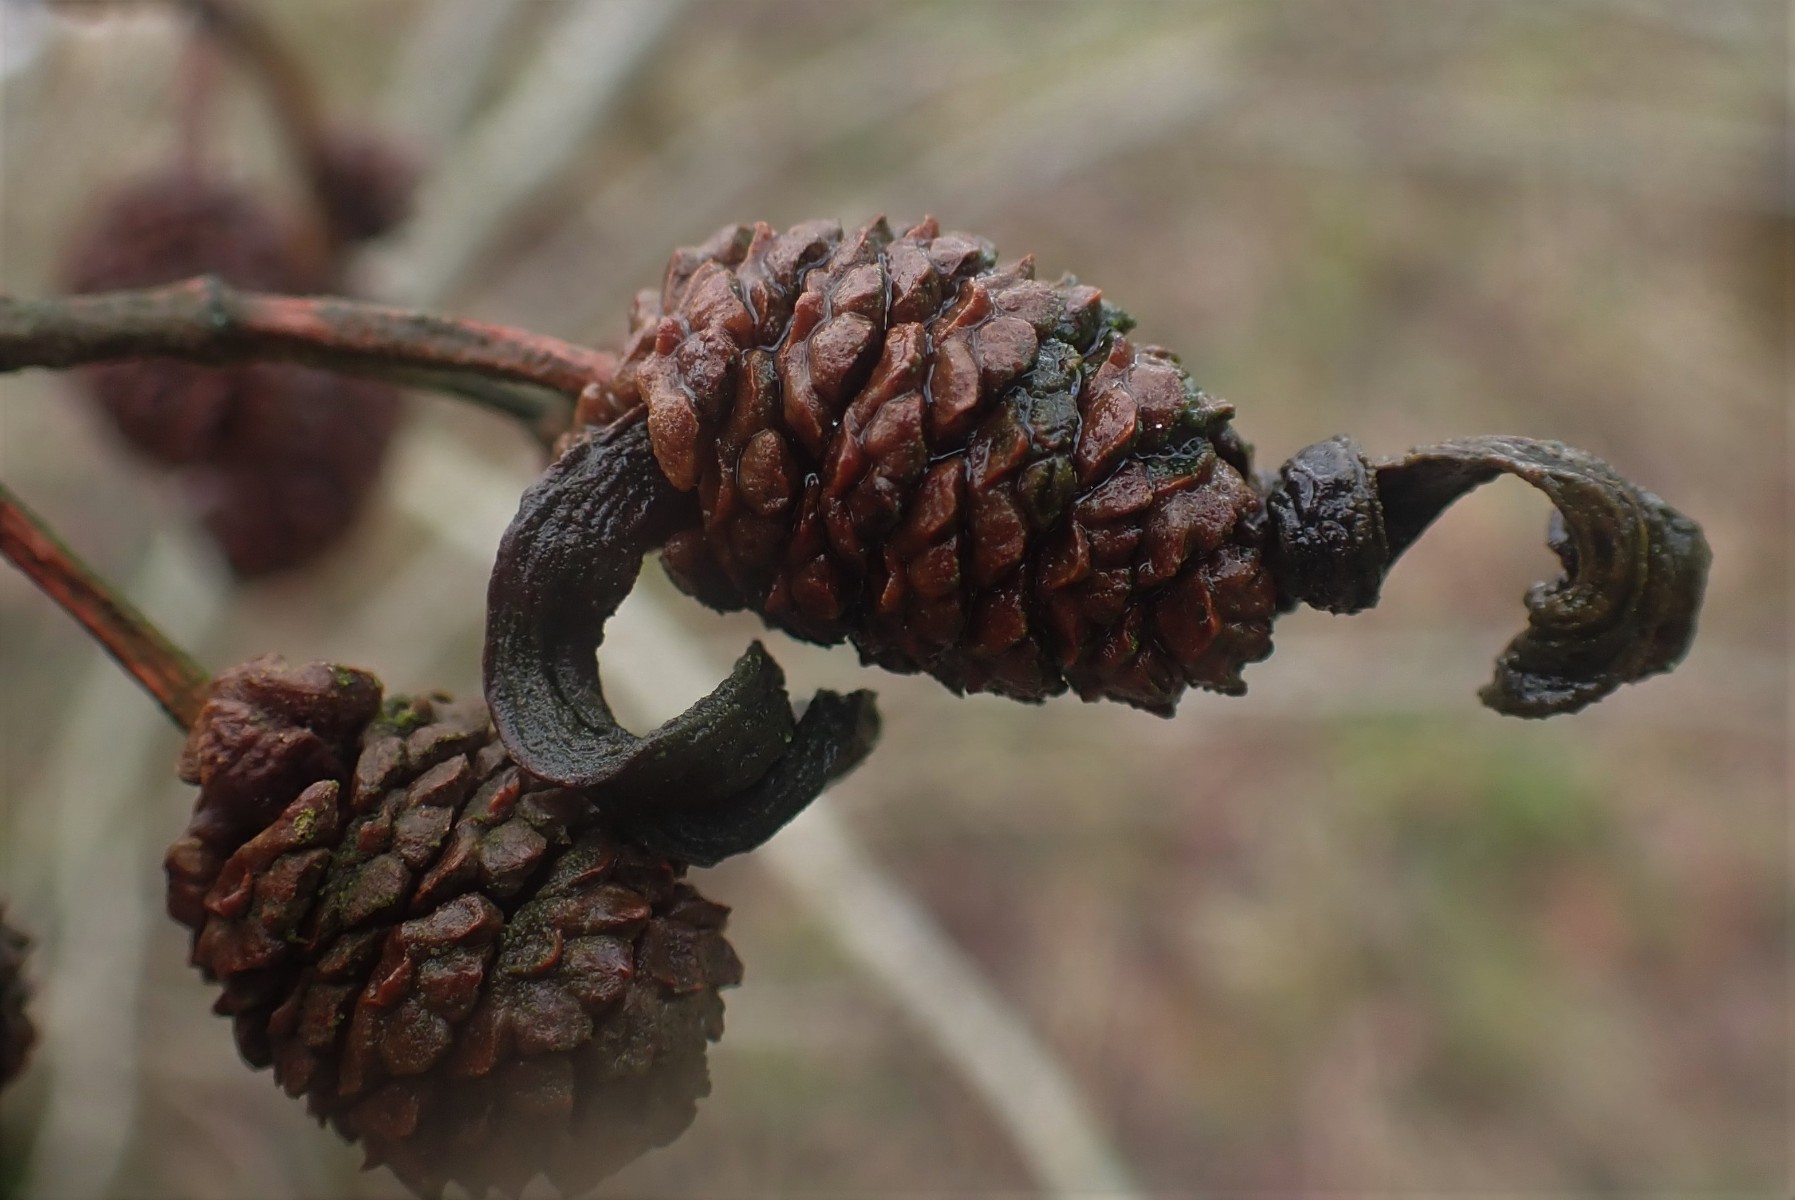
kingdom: Fungi
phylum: Ascomycota
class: Taphrinomycetes
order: Taphrinales
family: Taphrinaceae
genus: Taphrina
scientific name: Taphrina alni
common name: Alder tongue
